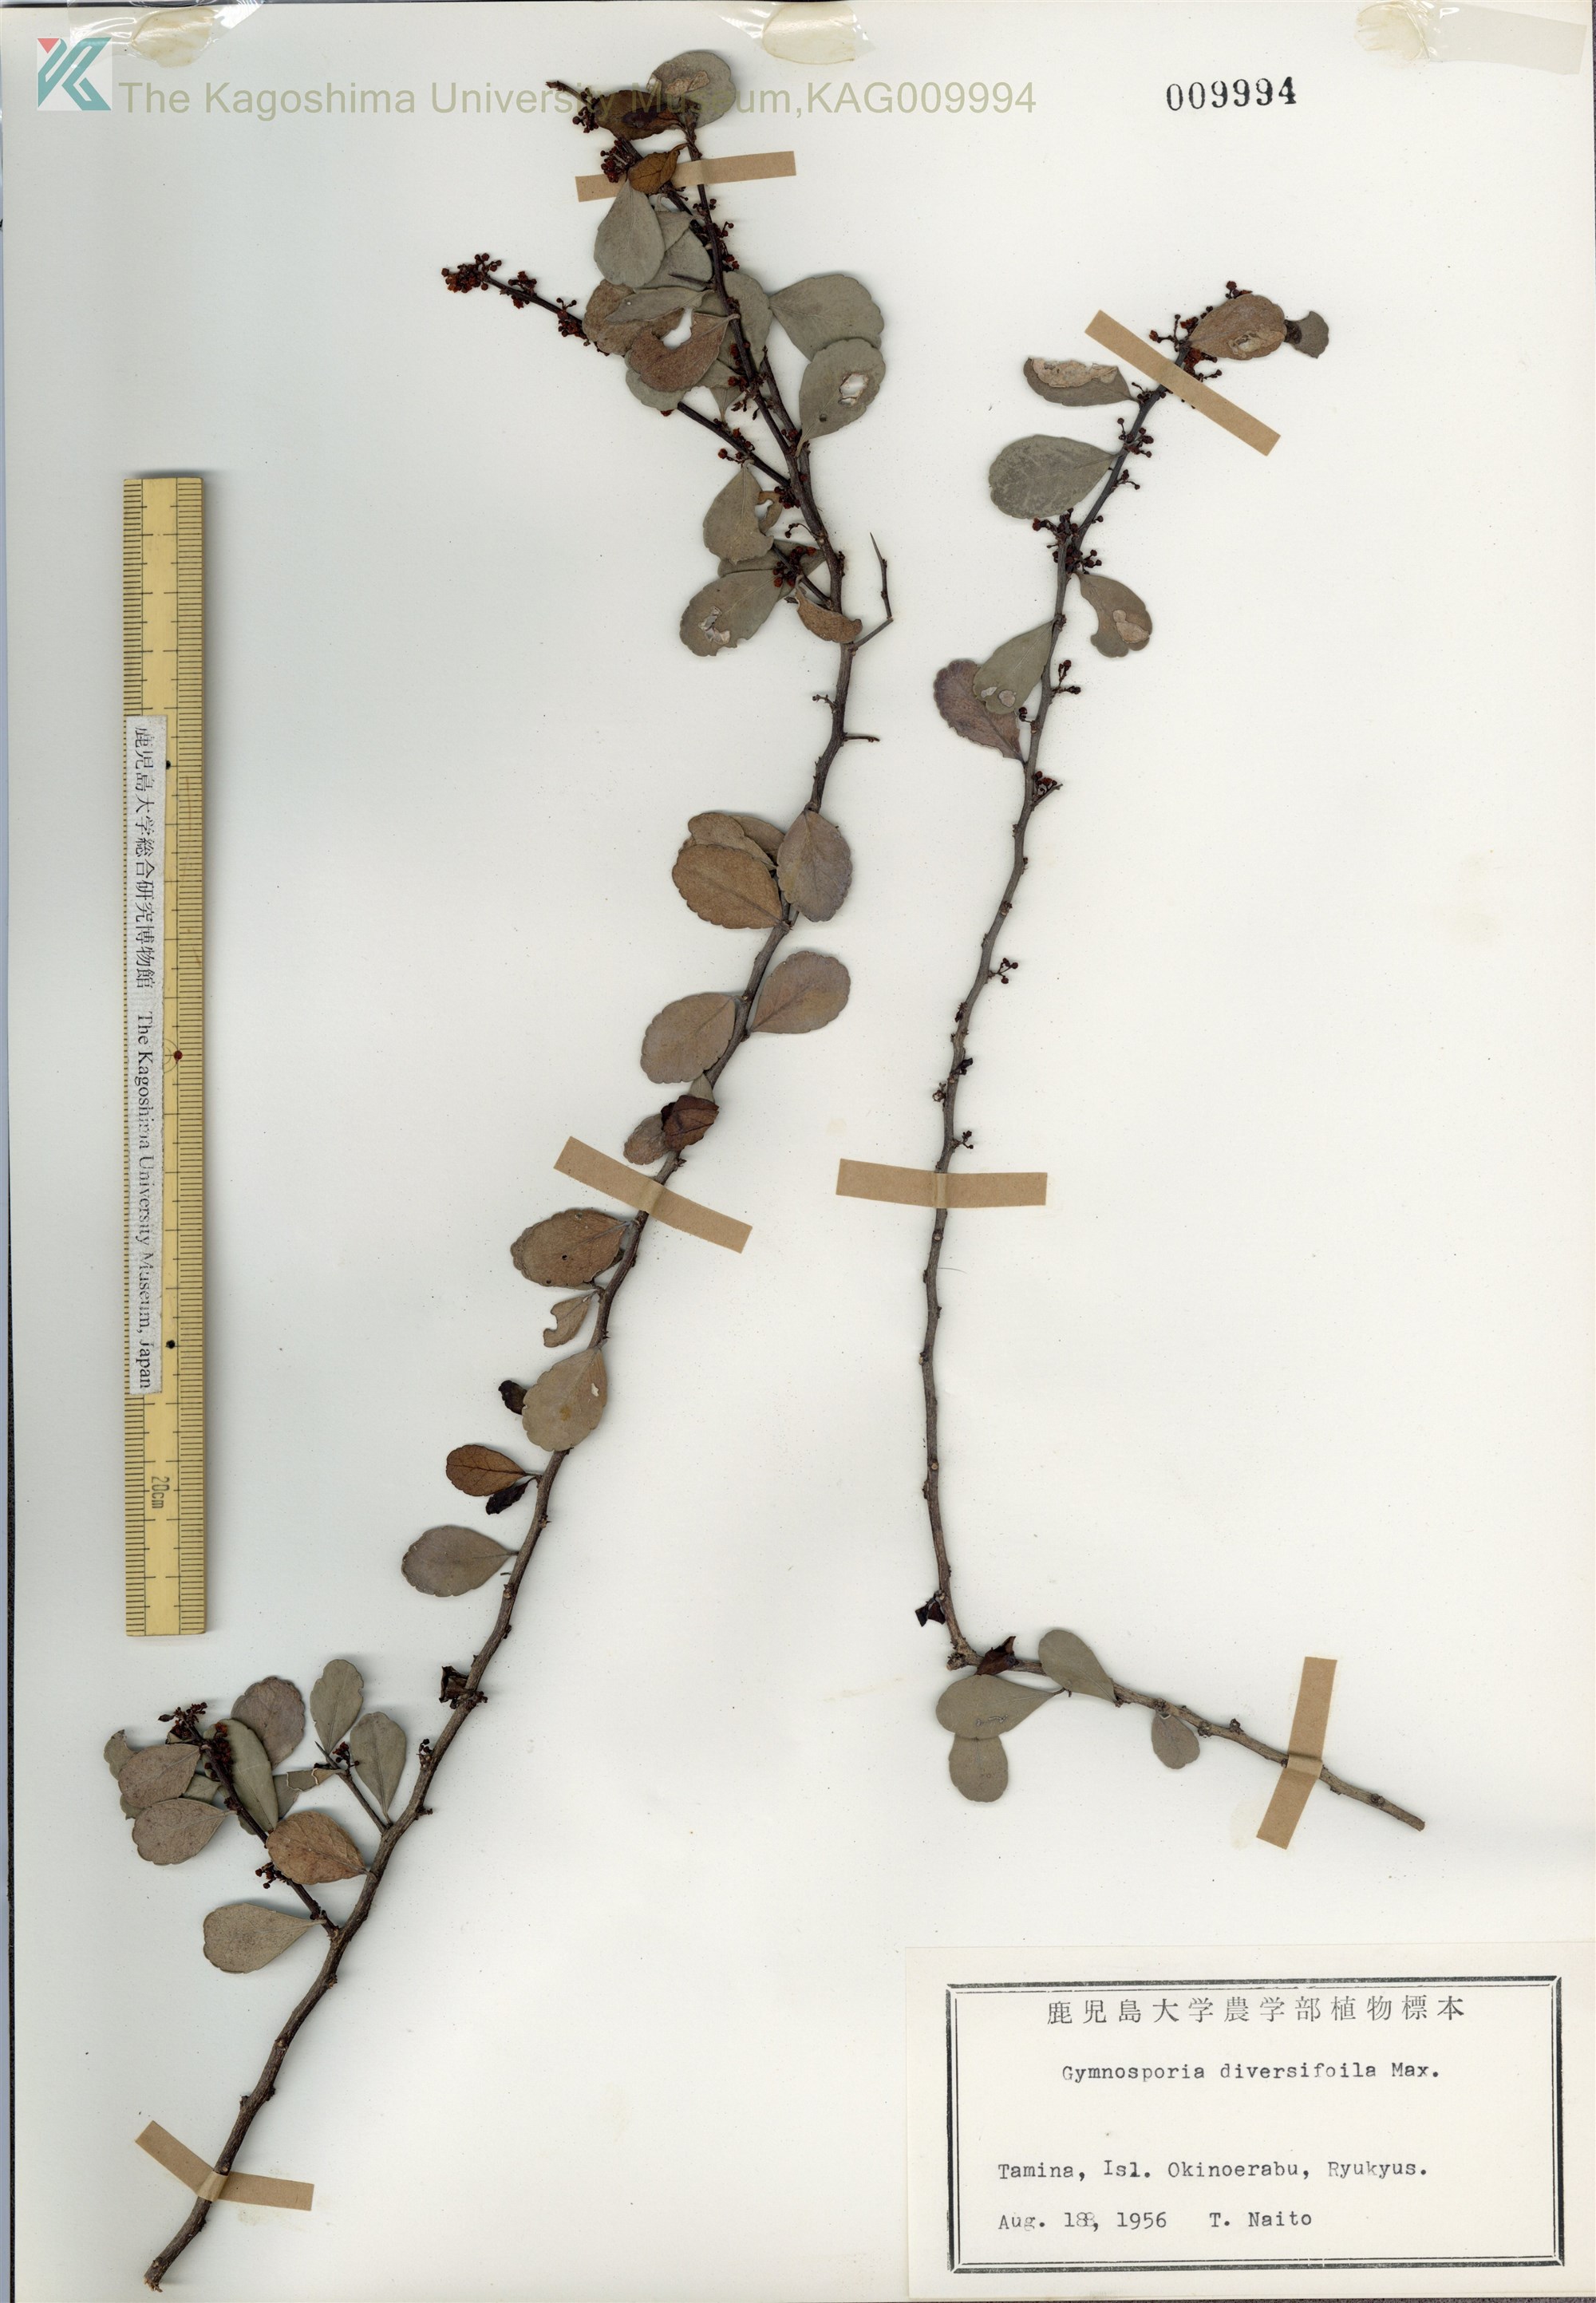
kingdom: Plantae
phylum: Tracheophyta
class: Magnoliopsida
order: Celastrales
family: Celastraceae
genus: Gymnosporia
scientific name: Gymnosporia diversifolia
